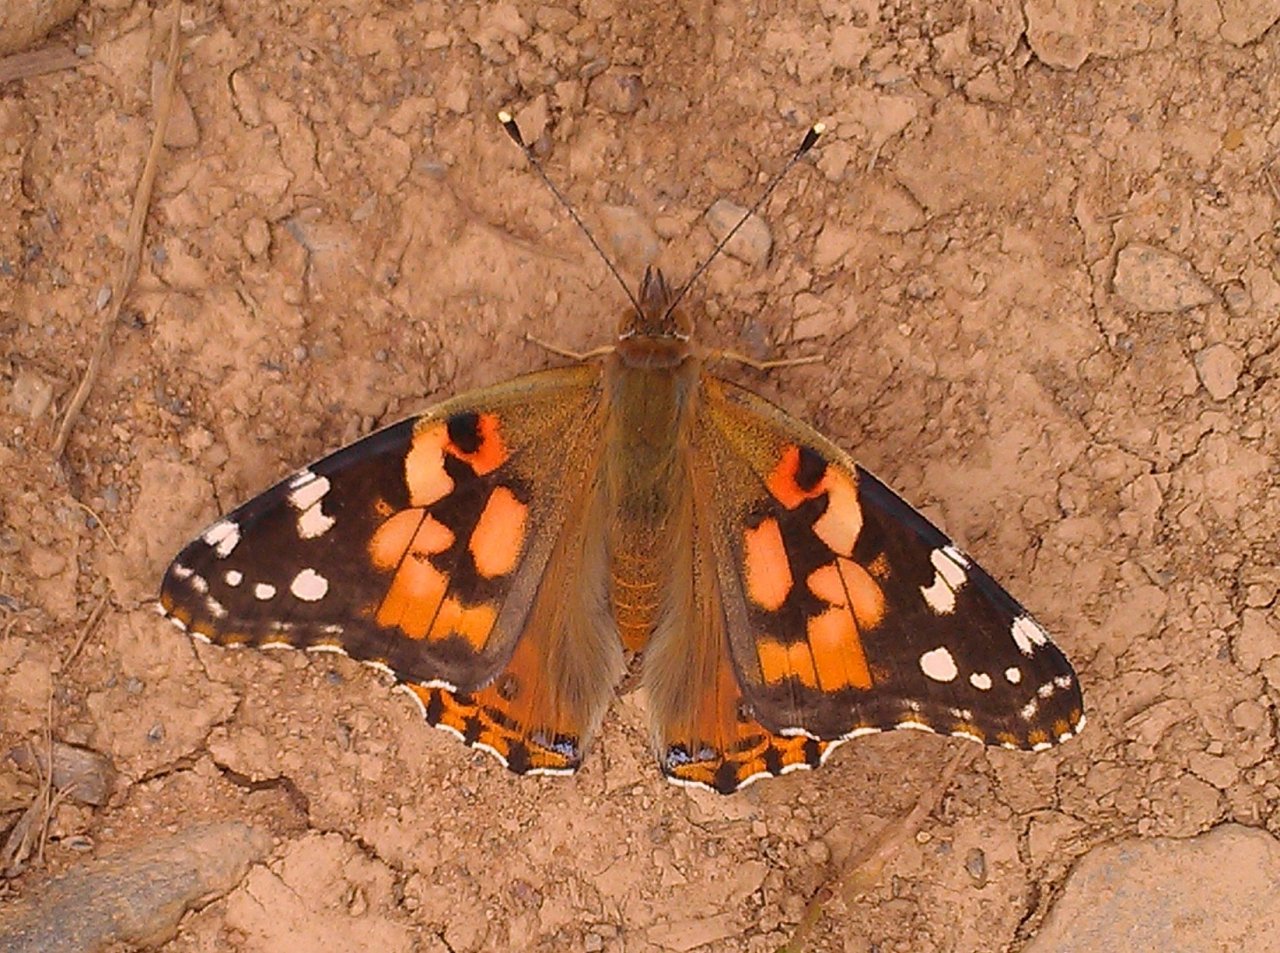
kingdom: Animalia
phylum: Arthropoda
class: Insecta
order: Lepidoptera
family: Nymphalidae
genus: Vanessa
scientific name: Vanessa cardui
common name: Painted Lady
